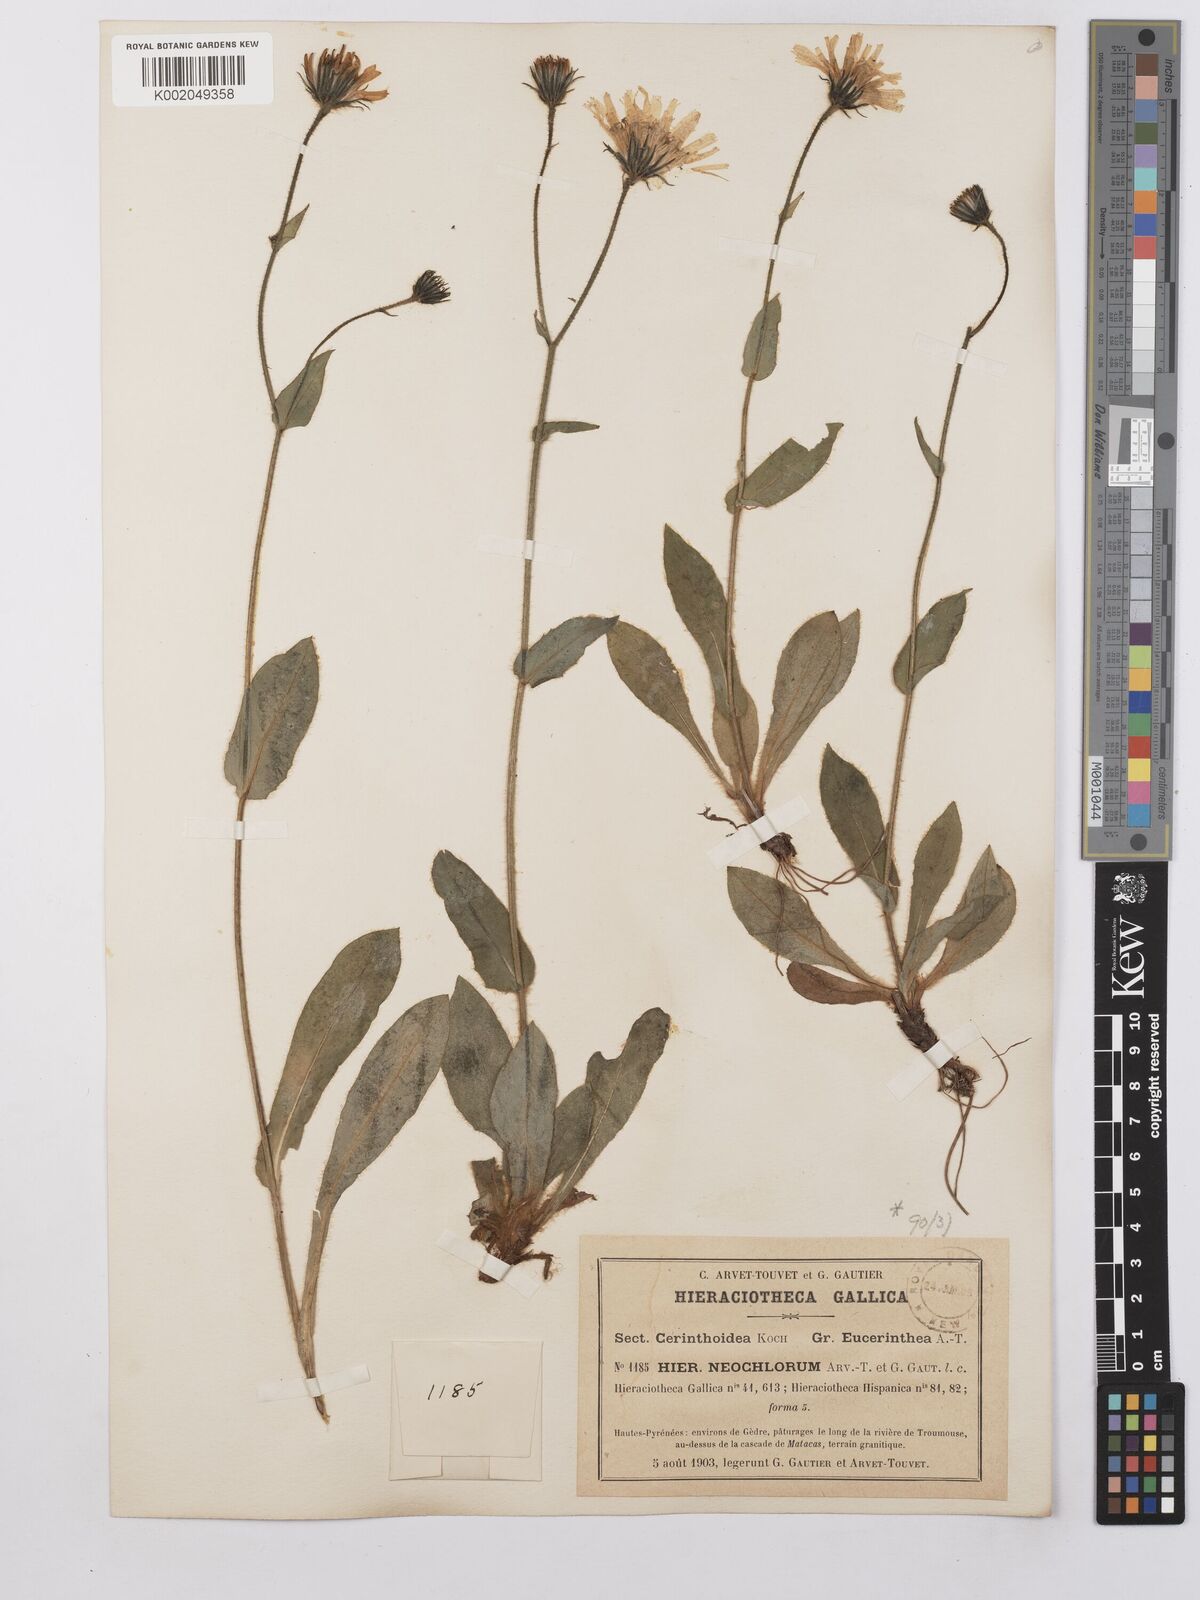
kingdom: Plantae
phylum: Tracheophyta
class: Magnoliopsida
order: Asterales
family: Asteraceae
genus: Hieracium
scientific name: Hieracium cerinthoides
